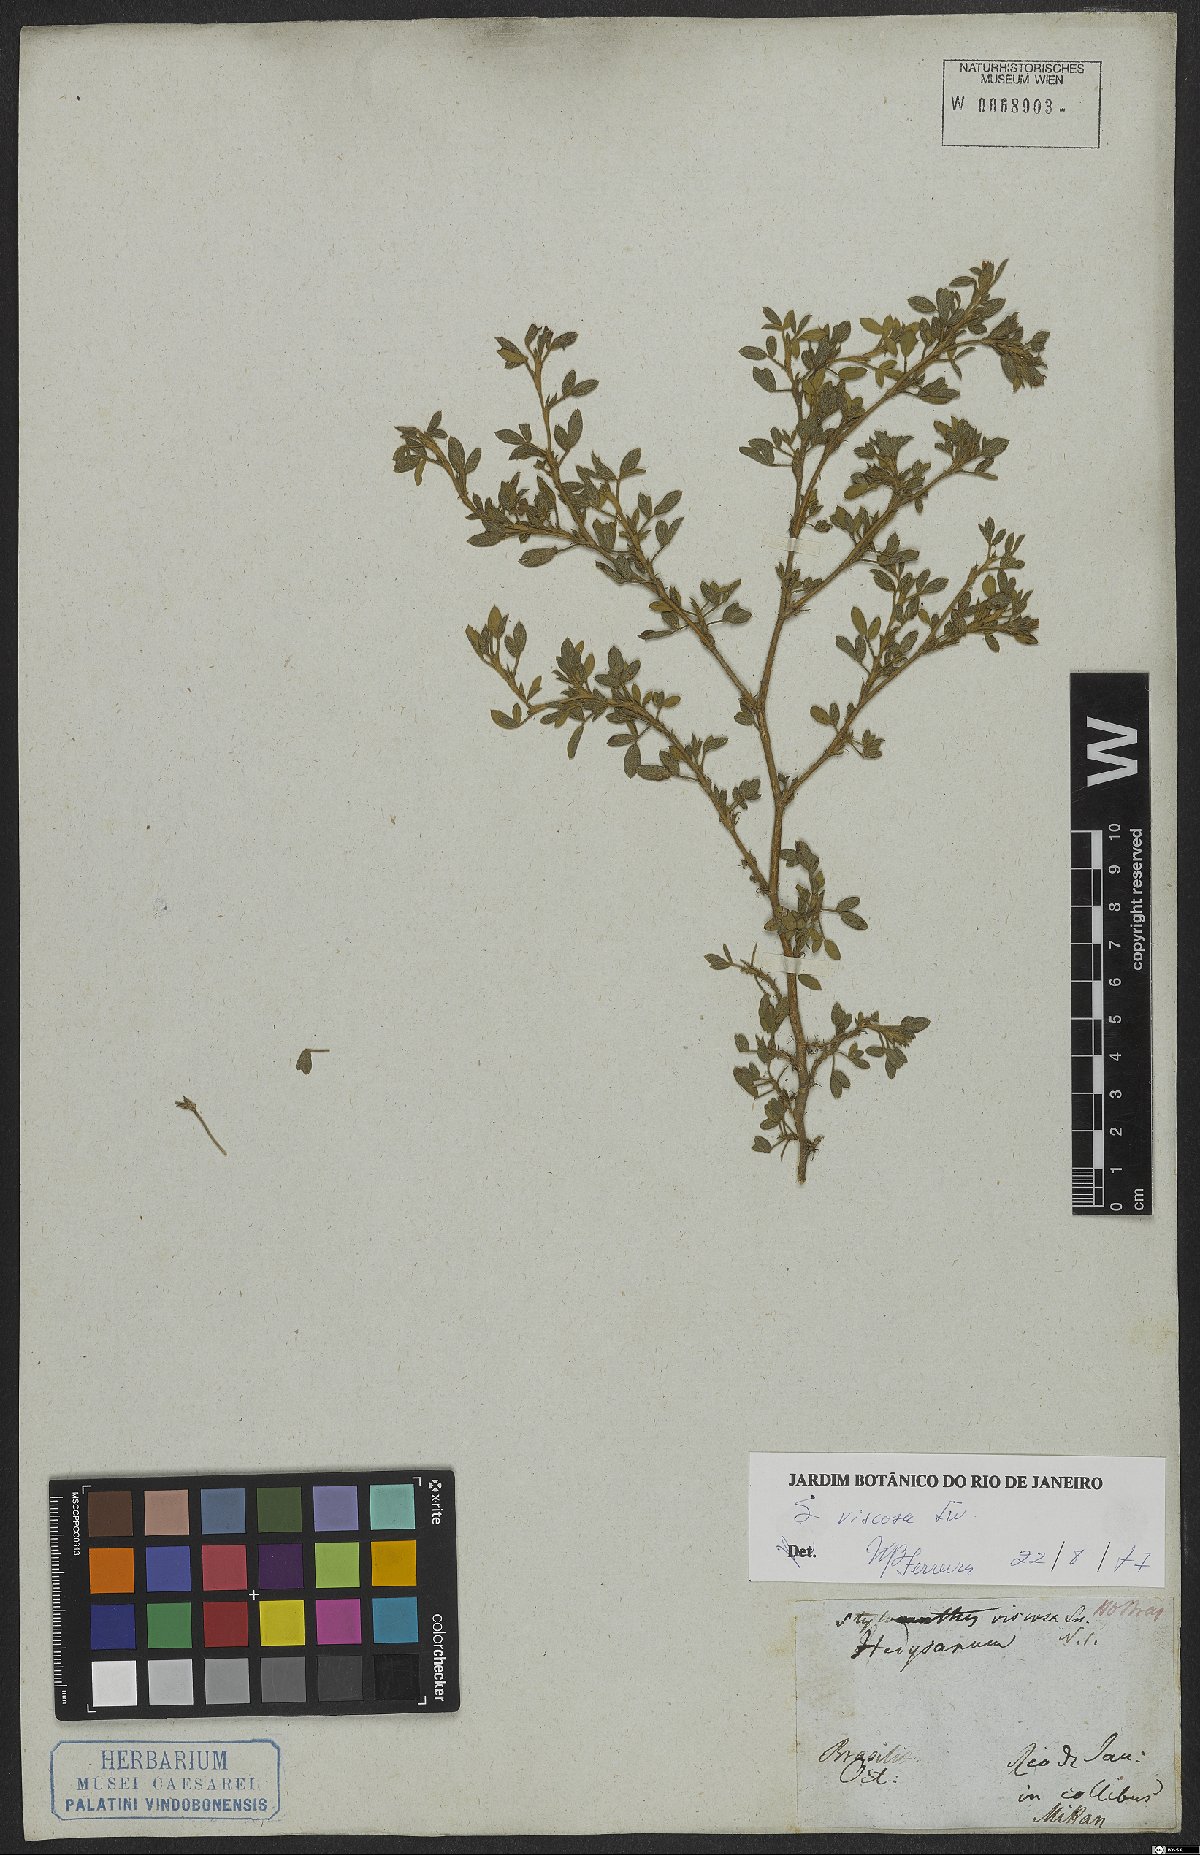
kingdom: Plantae
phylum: Tracheophyta
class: Magnoliopsida
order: Fabales
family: Fabaceae
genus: Stylosanthes
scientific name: Stylosanthes viscosa
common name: Viscid pencil-flower
